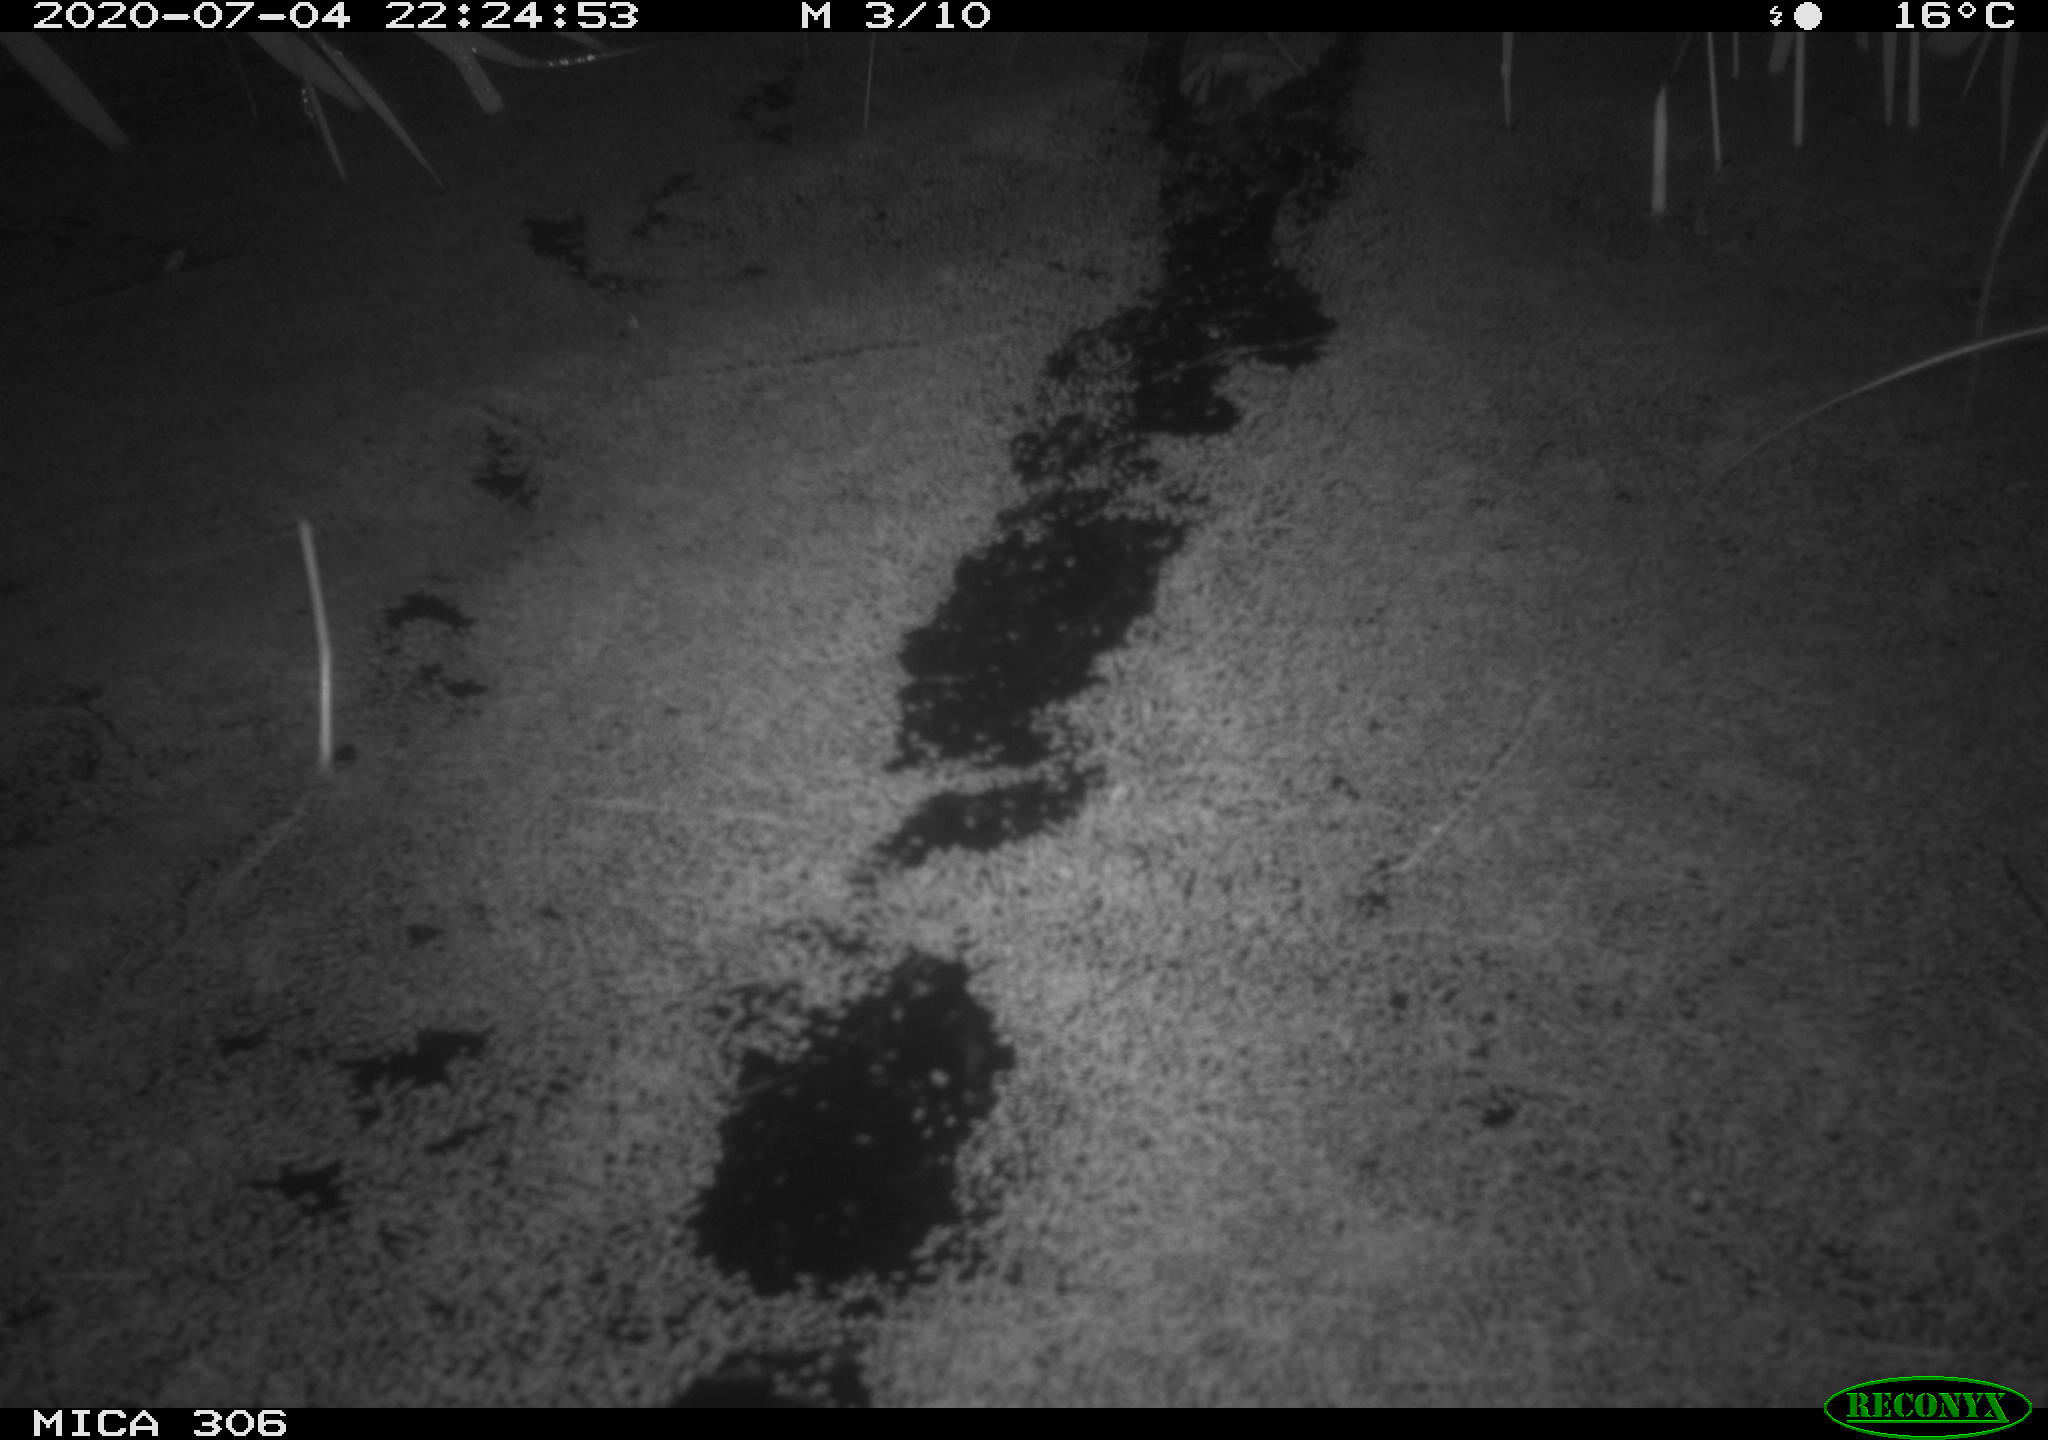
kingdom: Animalia
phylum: Chordata
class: Mammalia
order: Rodentia
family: Muridae
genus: Rattus
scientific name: Rattus norvegicus
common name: Brown rat
